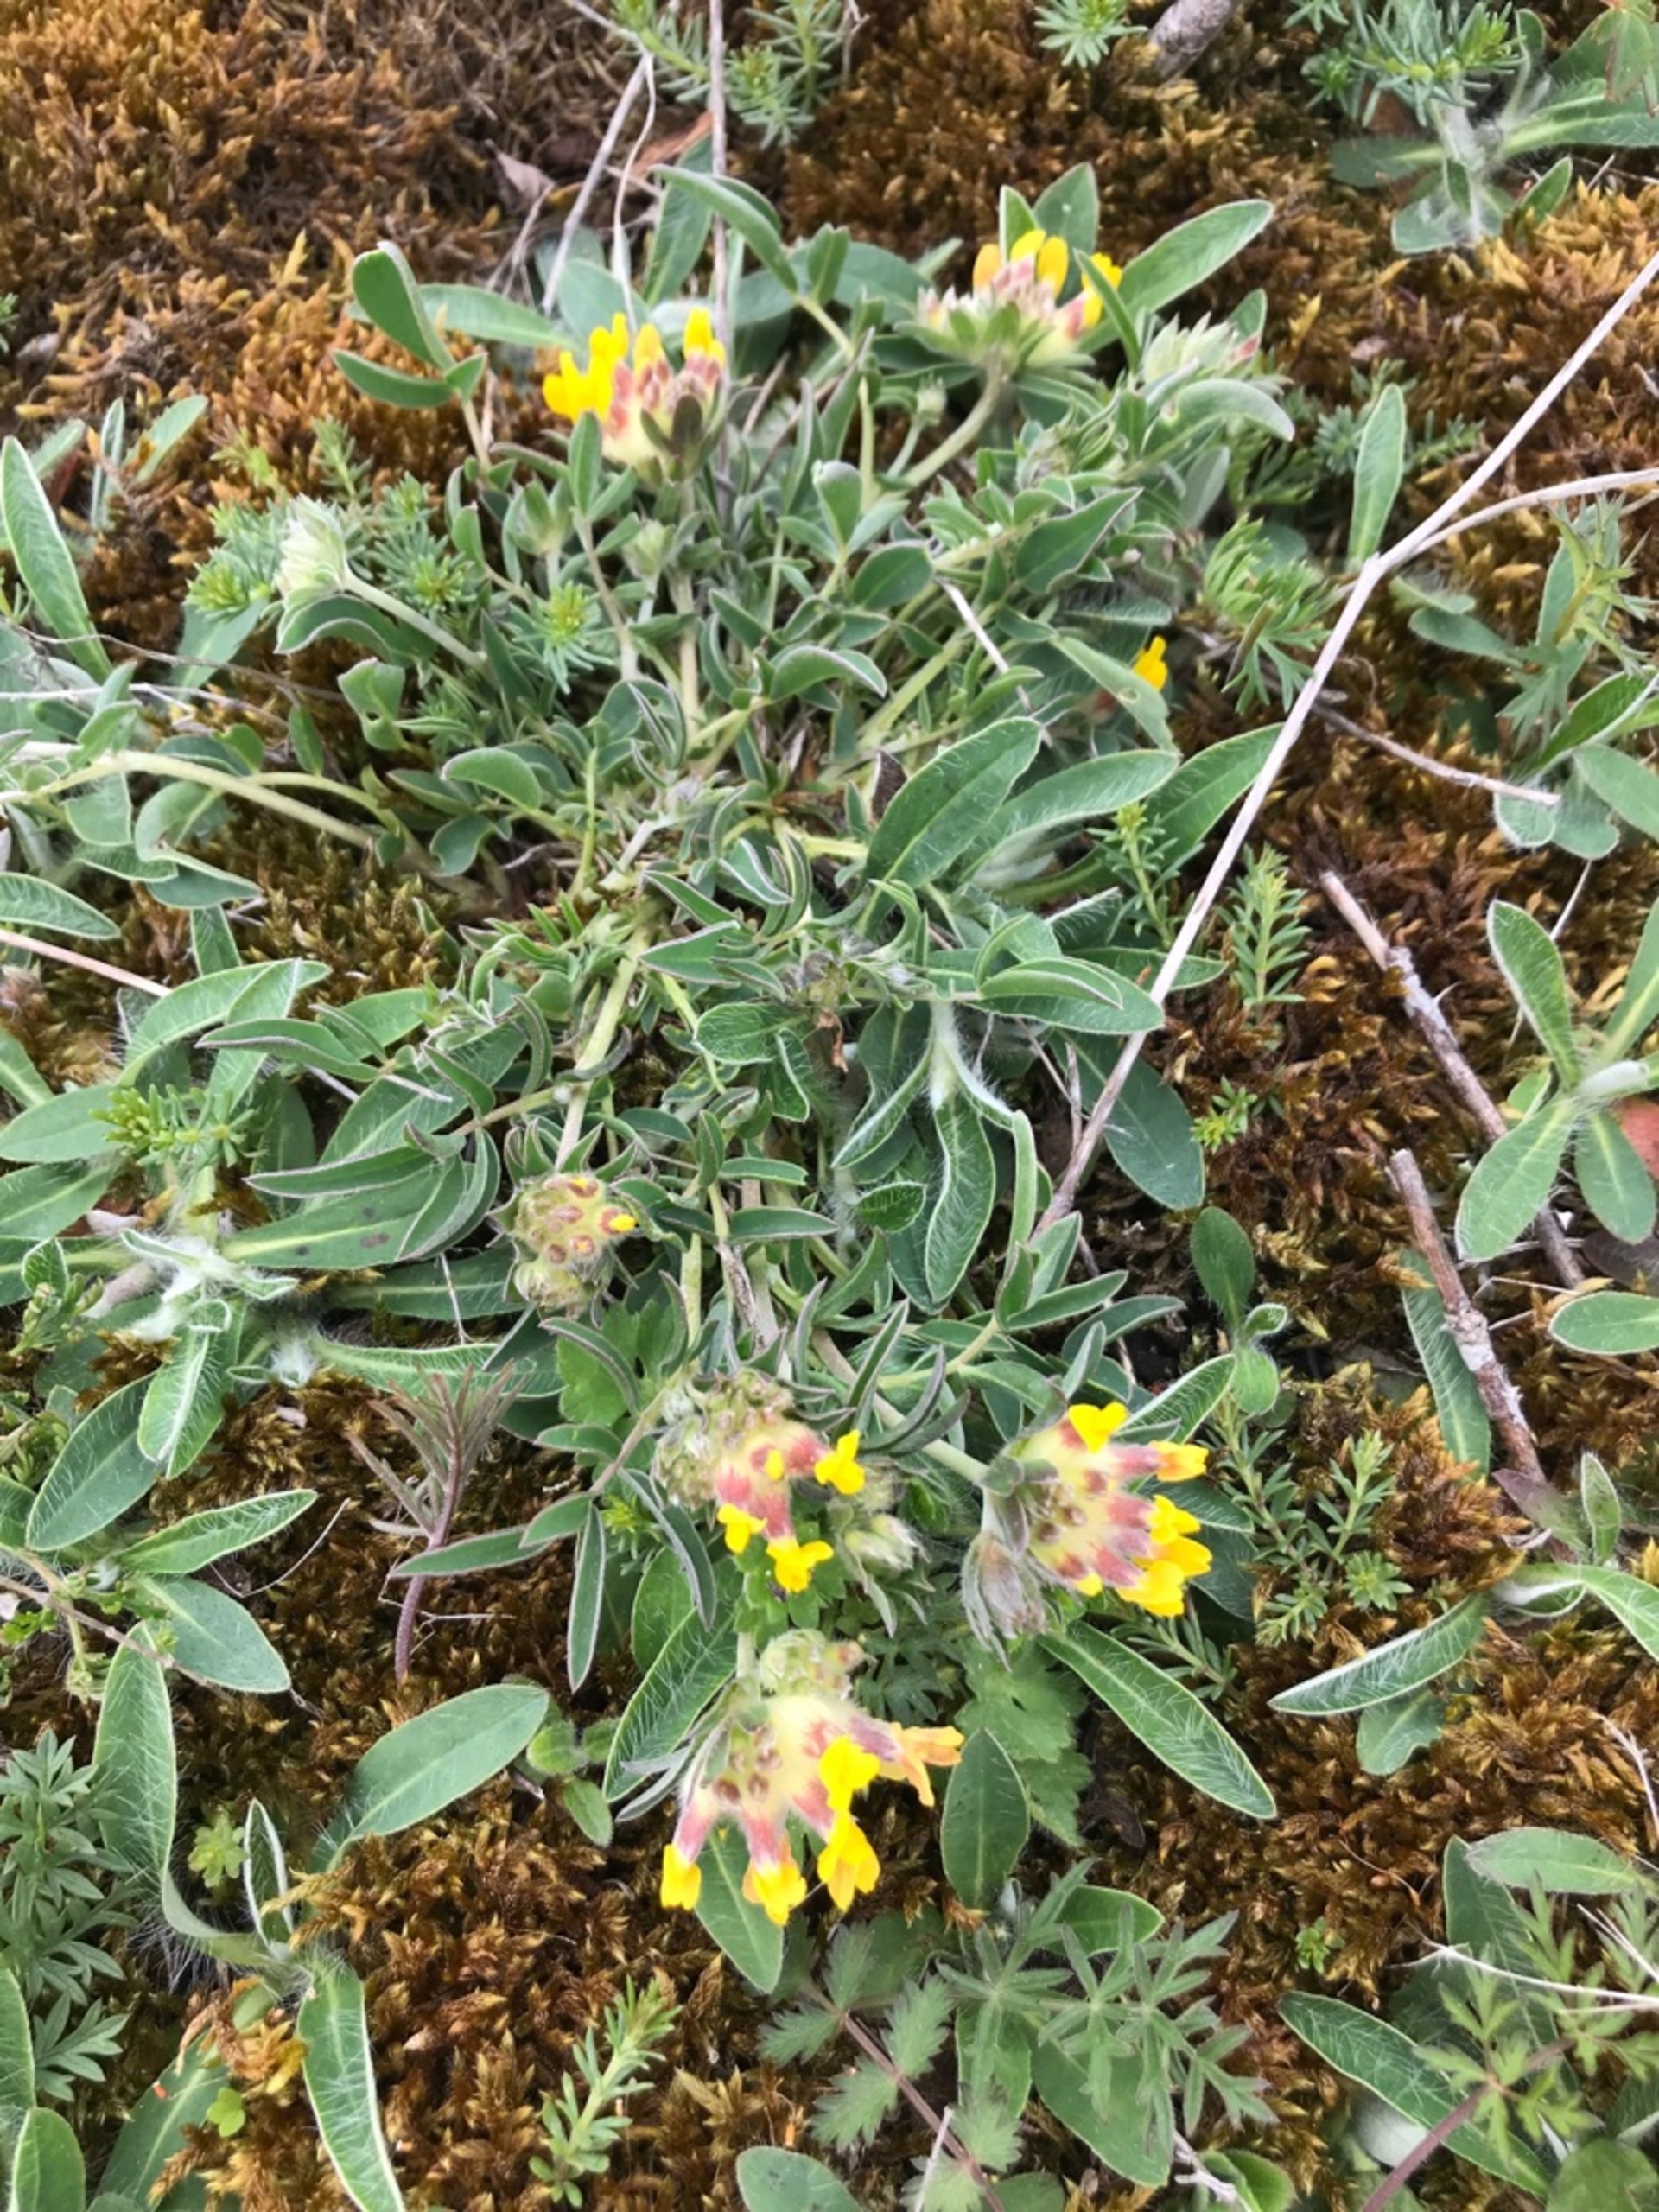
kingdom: Plantae
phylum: Tracheophyta
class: Magnoliopsida
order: Fabales
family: Fabaceae
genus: Anthyllis
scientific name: Anthyllis vulneraria
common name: Rundbælg
